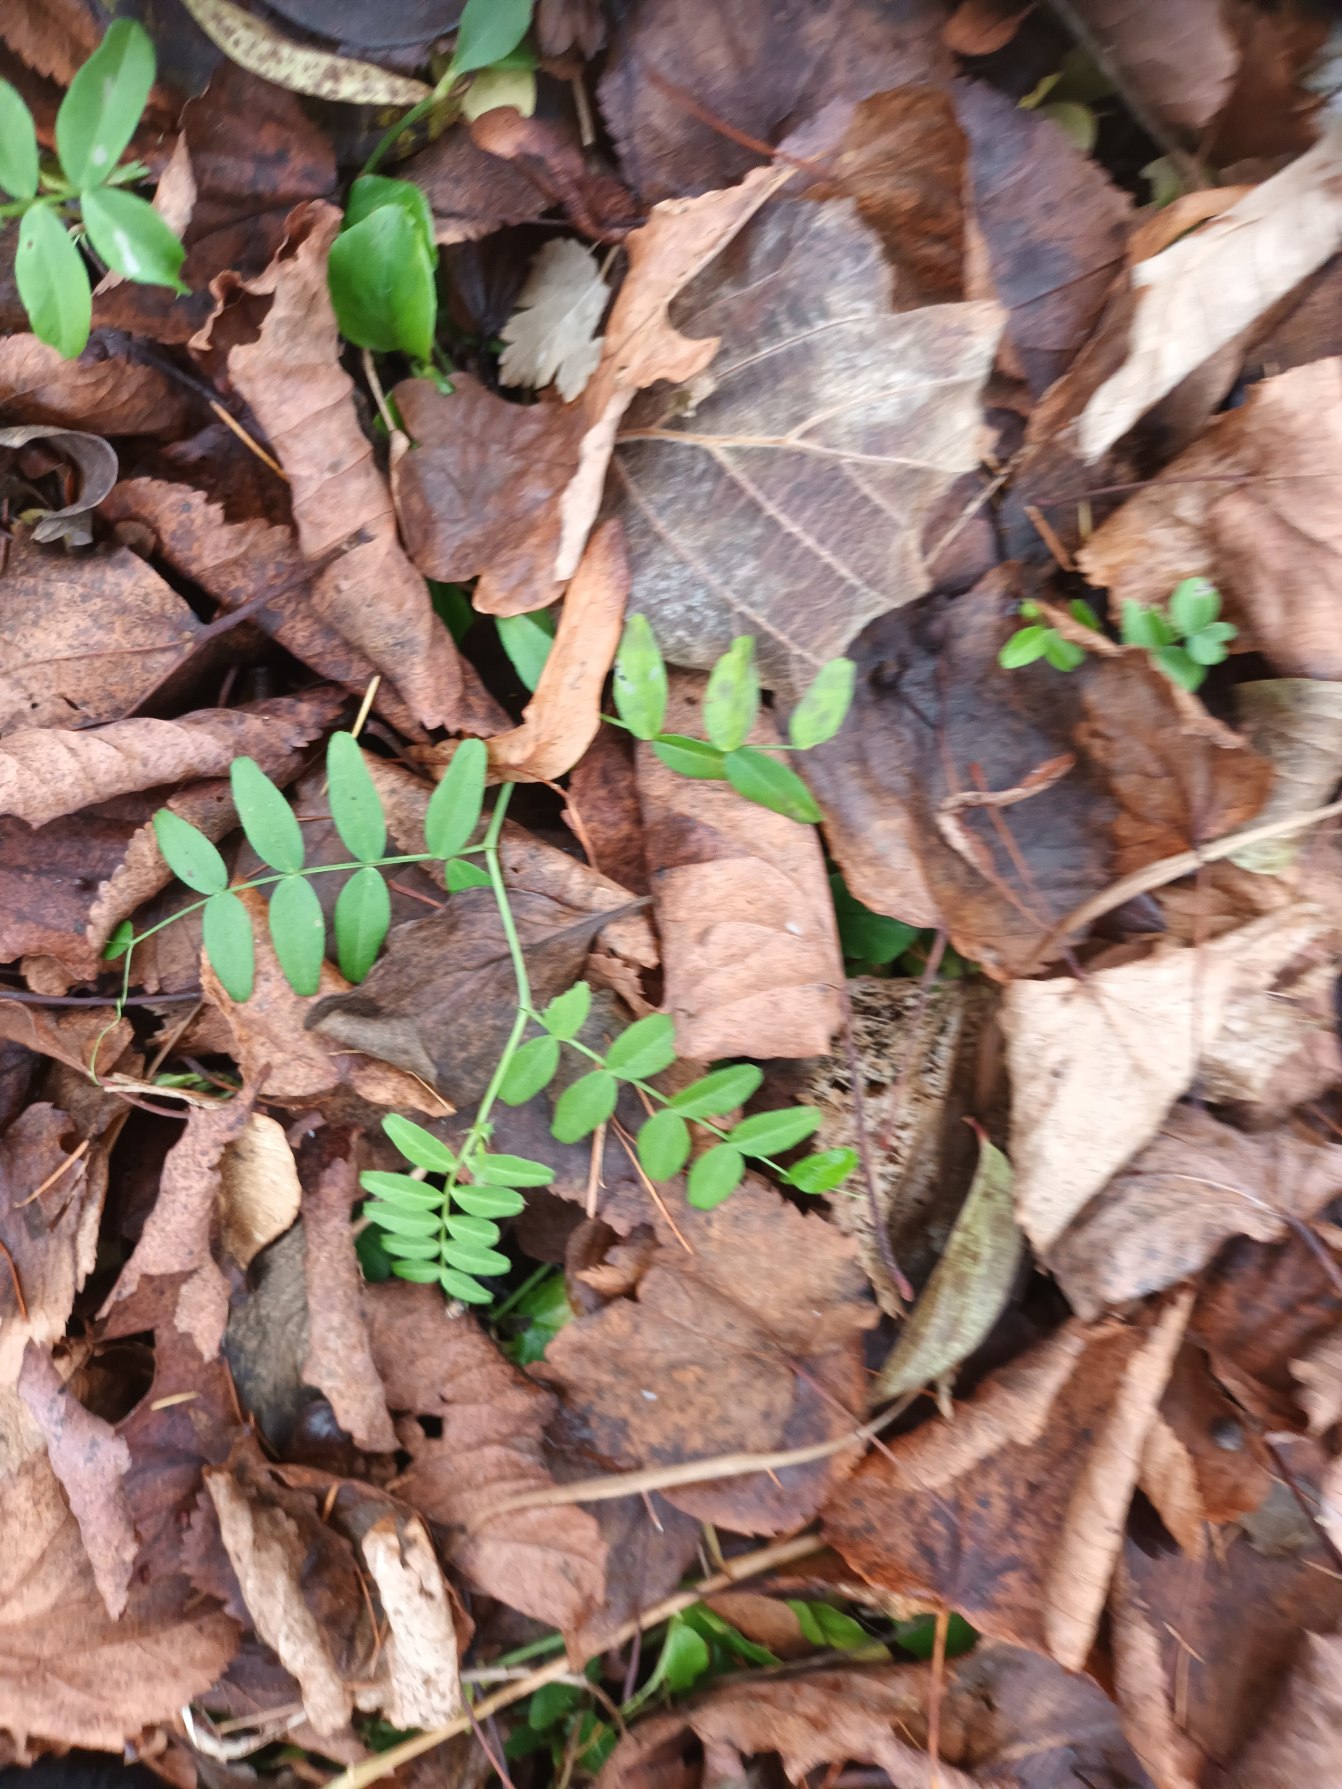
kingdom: Plantae
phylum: Tracheophyta
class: Magnoliopsida
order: Fabales
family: Fabaceae
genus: Vicia
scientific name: Vicia sepium
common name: Gærde-vikke
